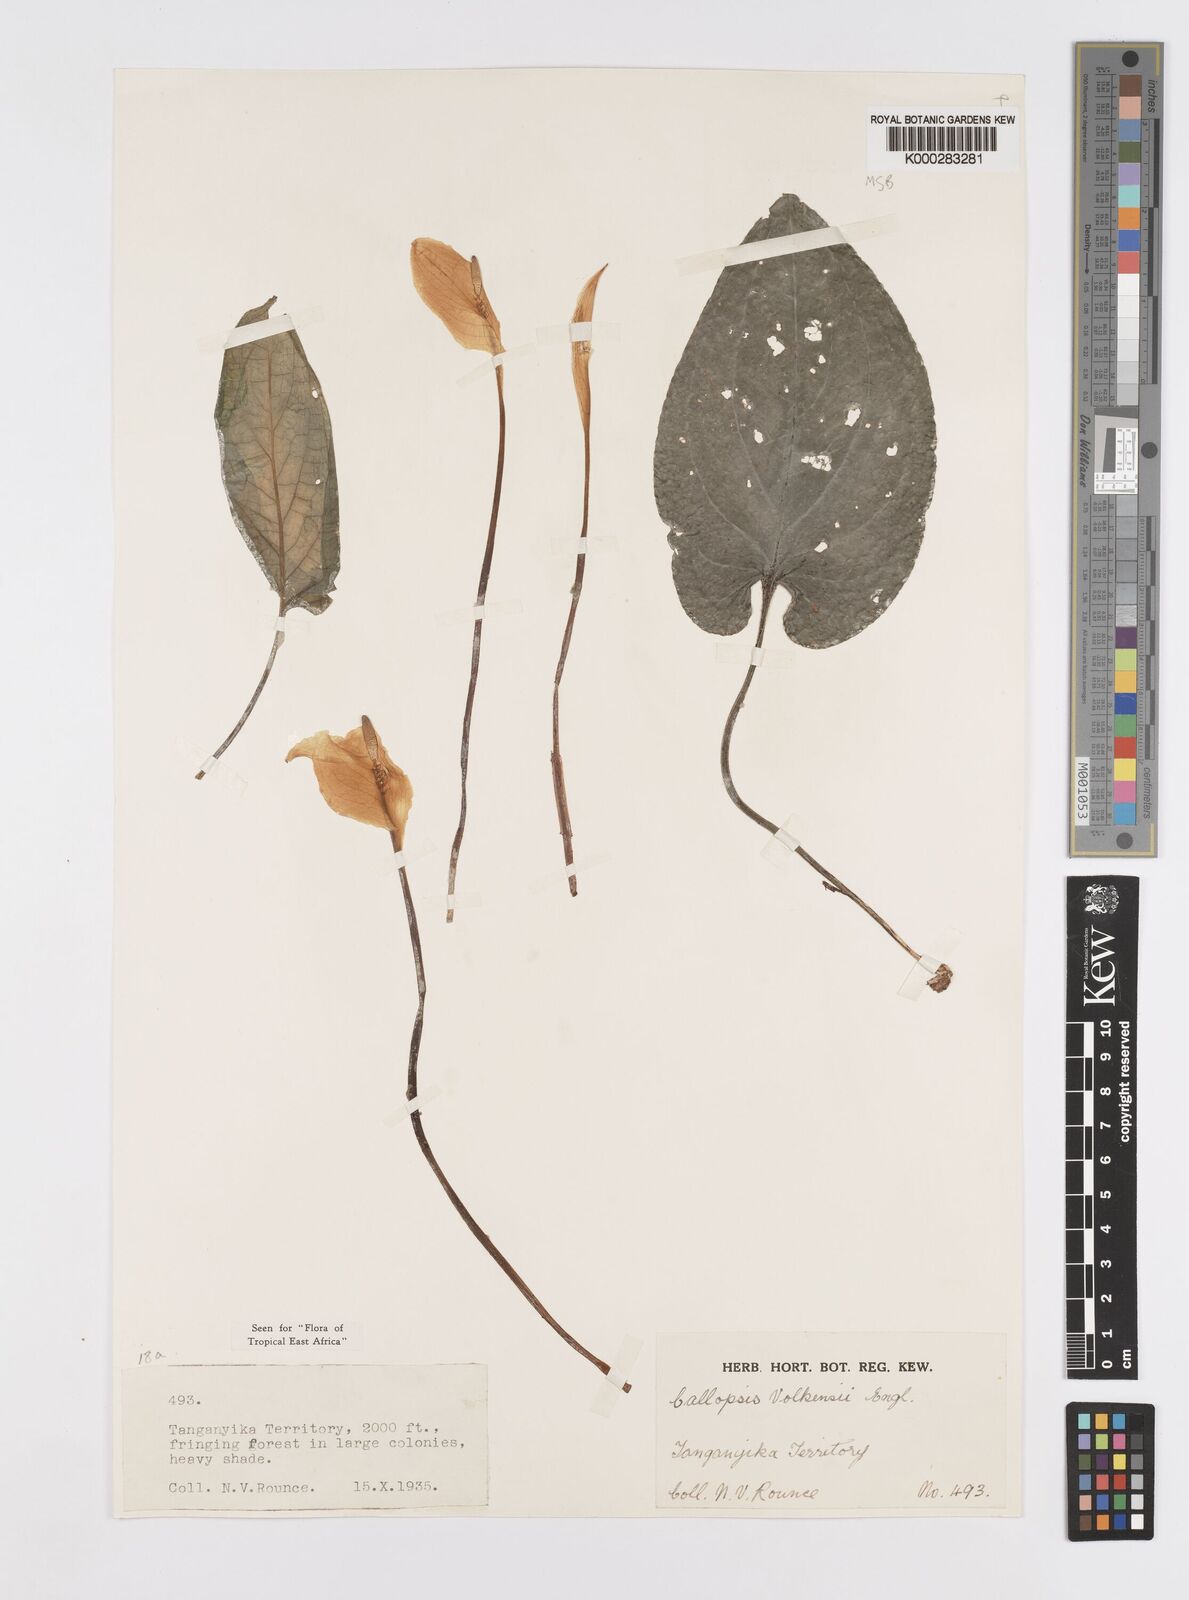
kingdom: Plantae
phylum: Tracheophyta
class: Liliopsida
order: Alismatales
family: Araceae
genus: Callopsis
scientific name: Callopsis volkensii
